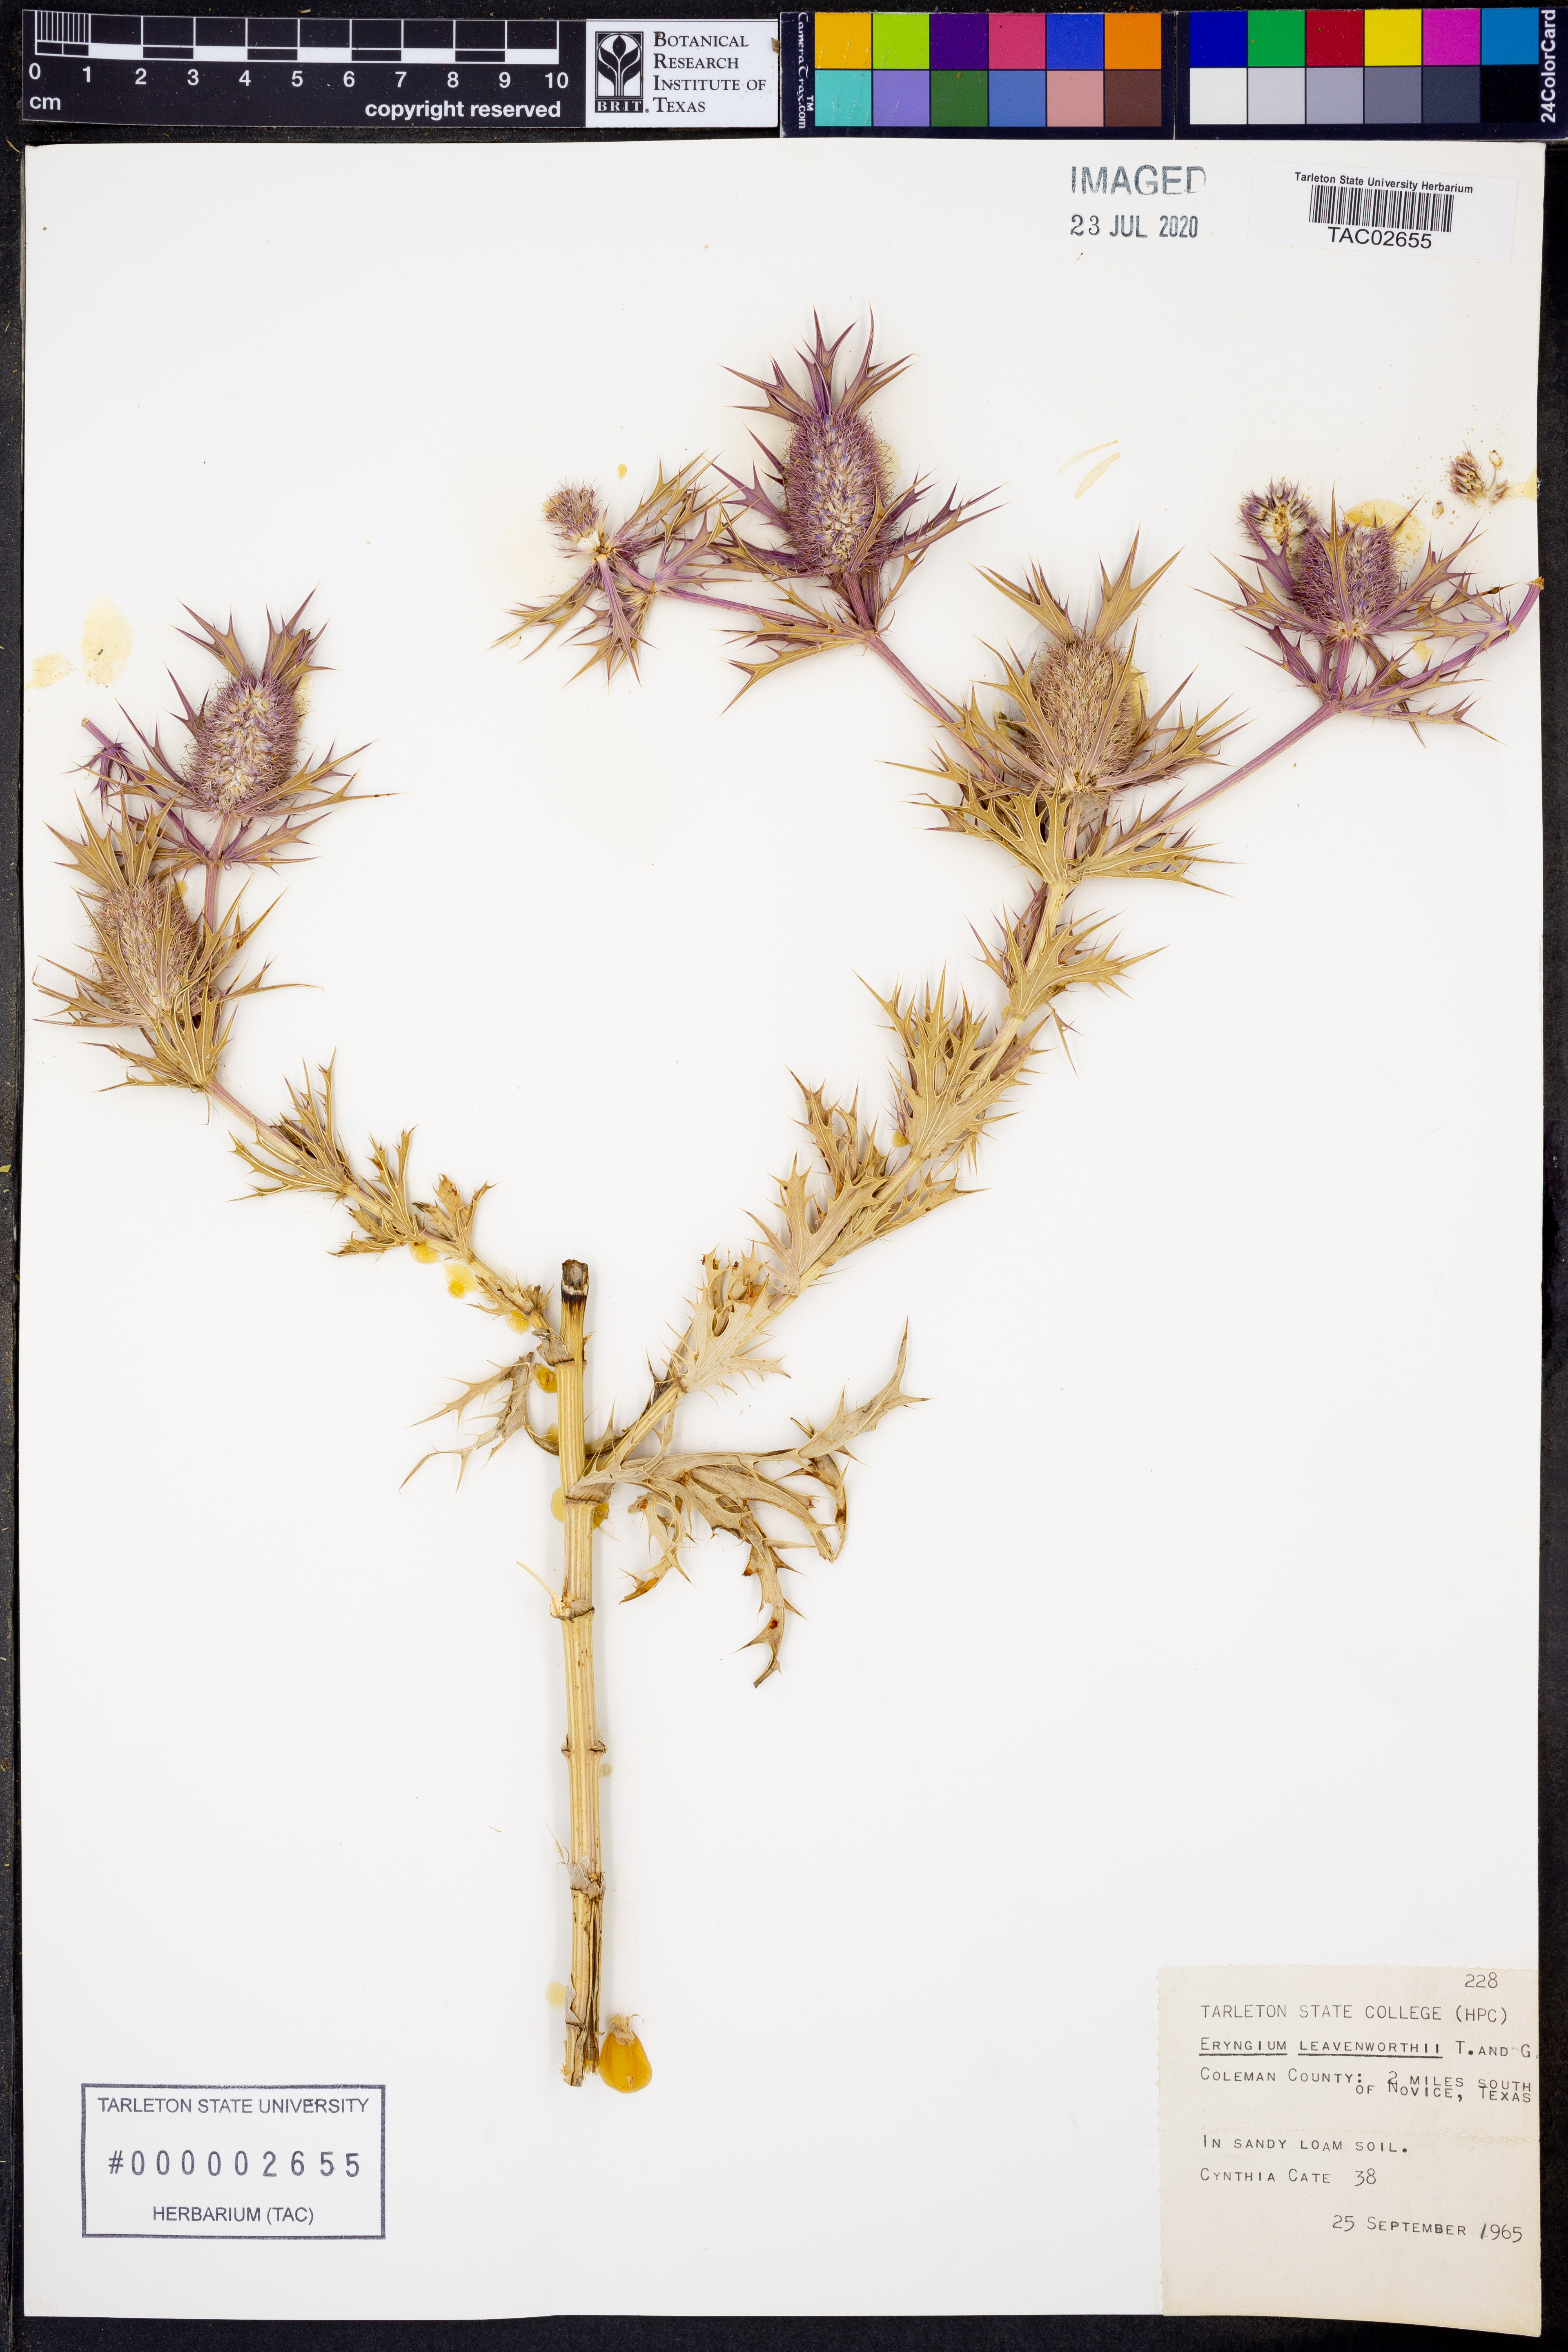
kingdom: Plantae
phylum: Tracheophyta
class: Magnoliopsida
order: Apiales
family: Apiaceae
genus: Eryngium
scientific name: Eryngium leavenworthii
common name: Leavenworth's eryngo
